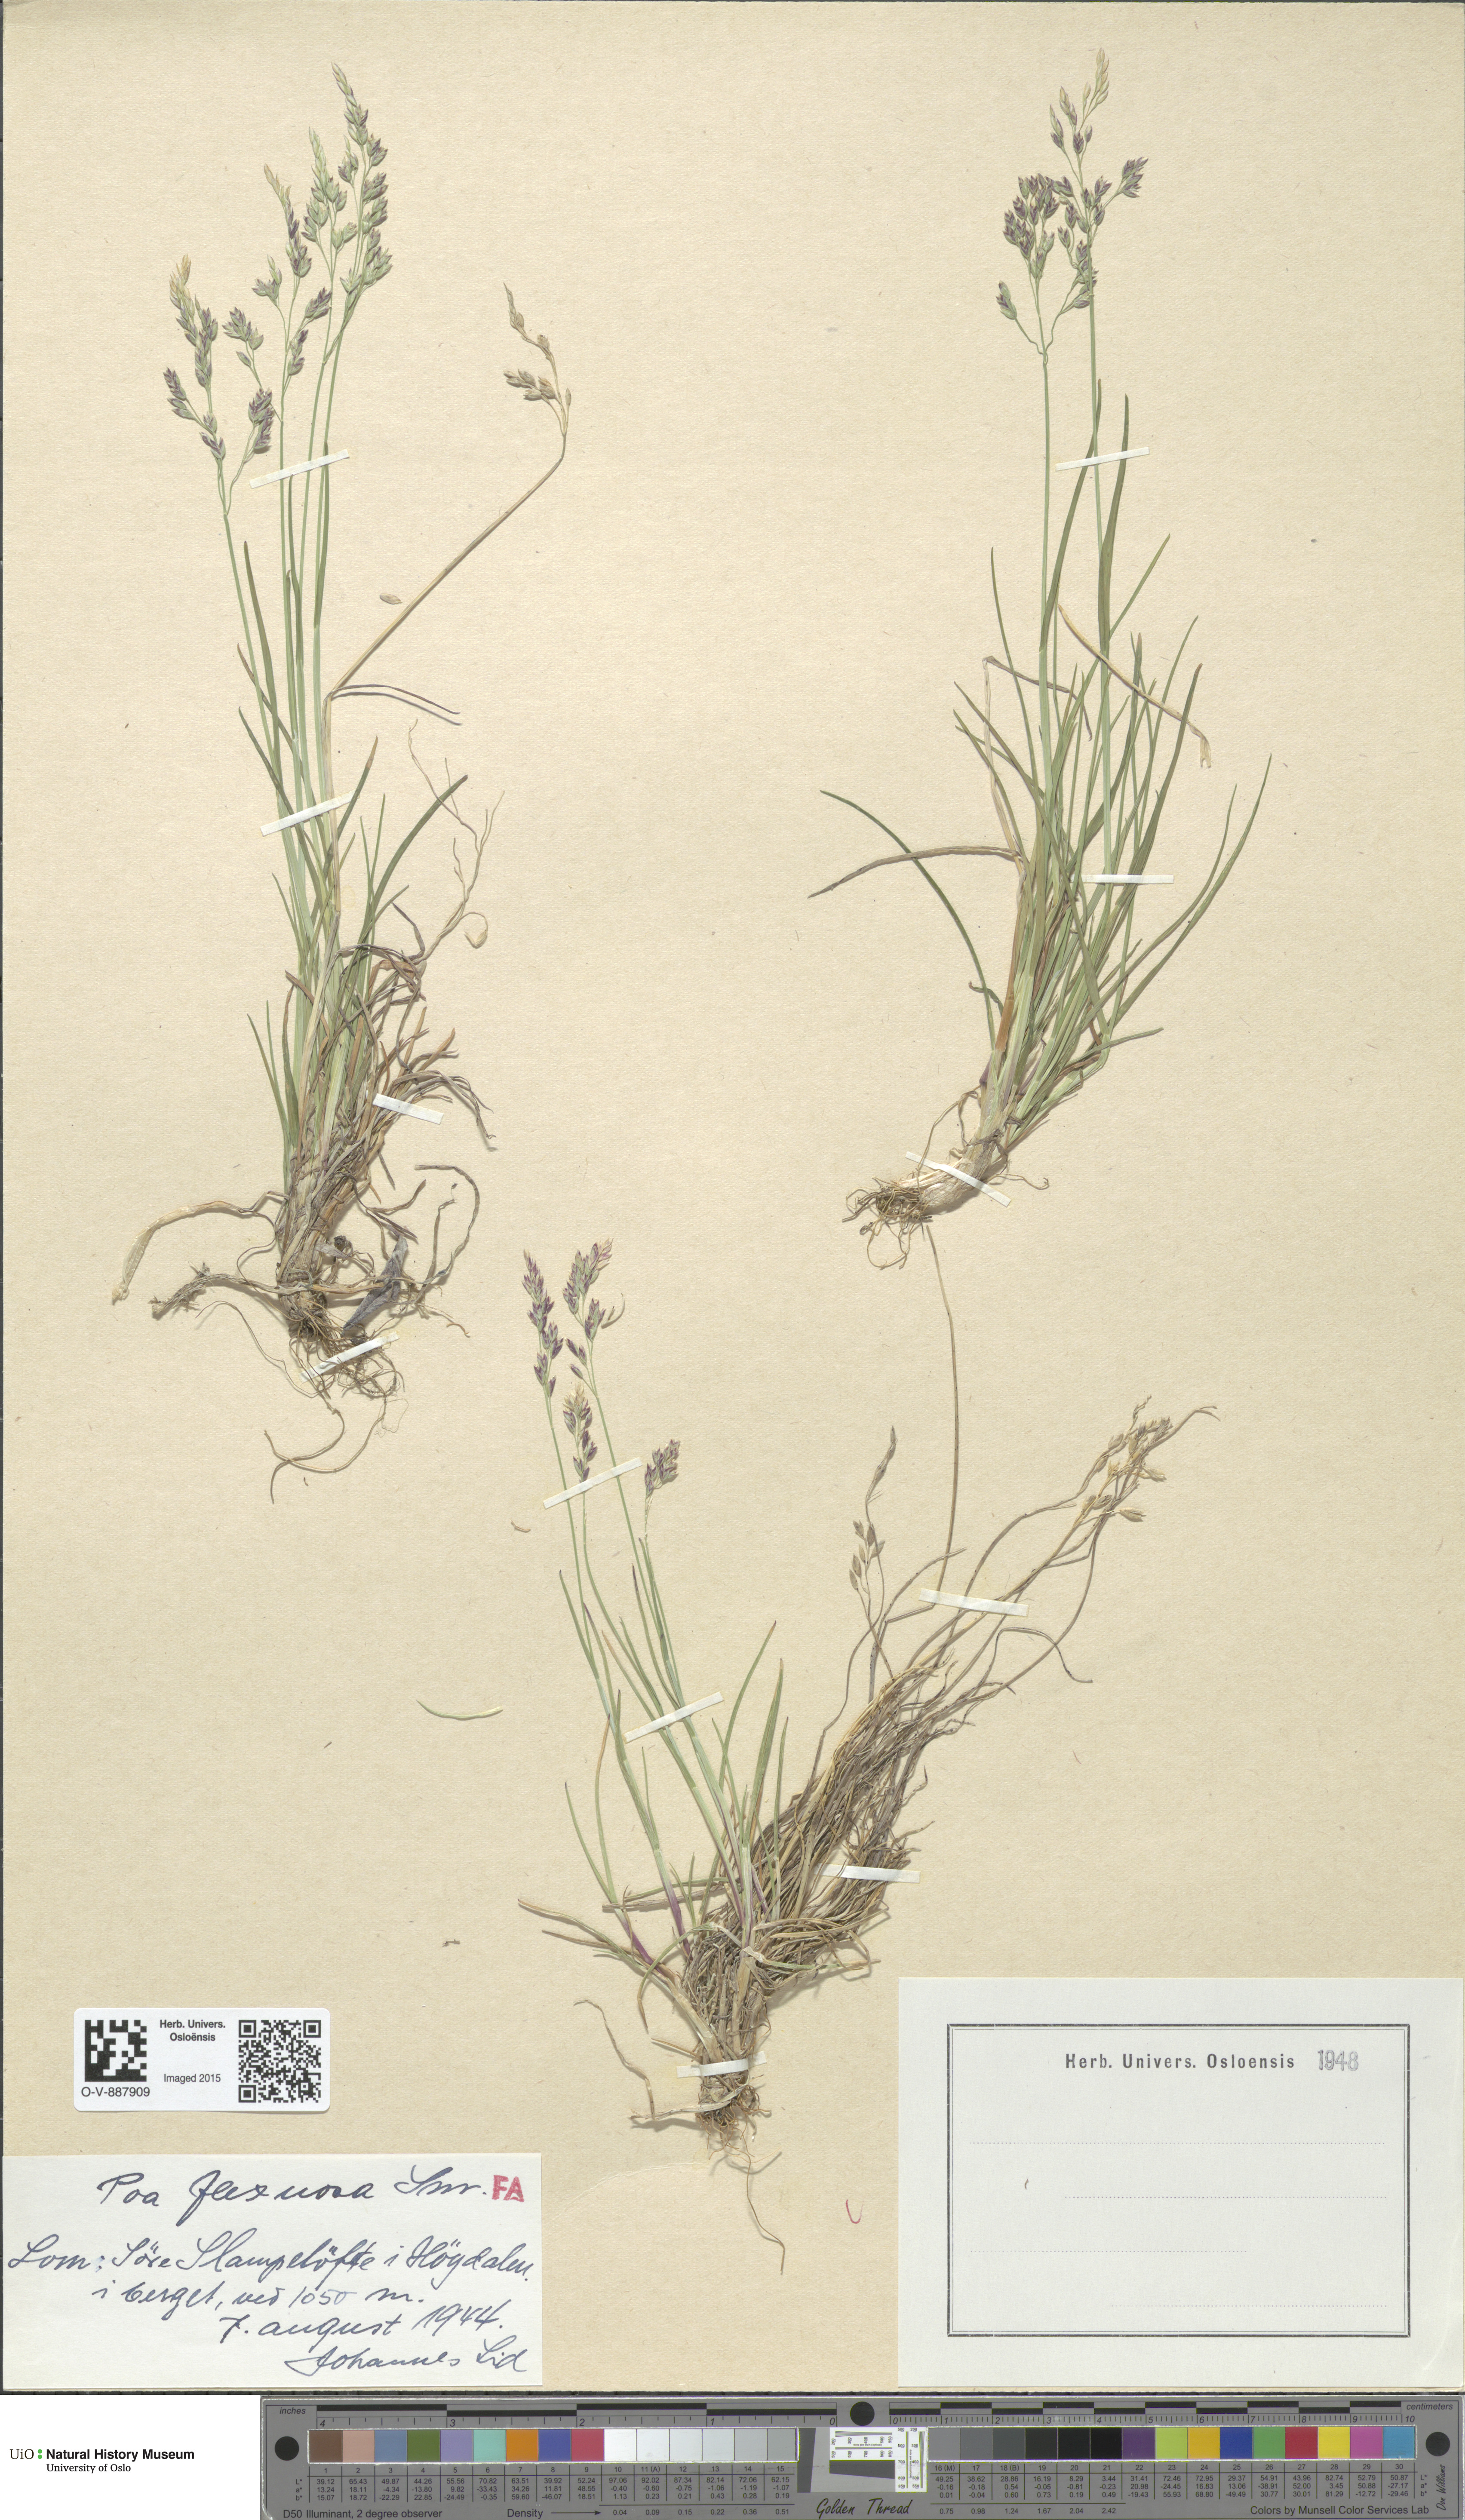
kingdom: Plantae
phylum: Tracheophyta
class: Liliopsida
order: Poales
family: Poaceae
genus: Poa
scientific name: Poa flexuosa
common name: Wavy meadow-grass
